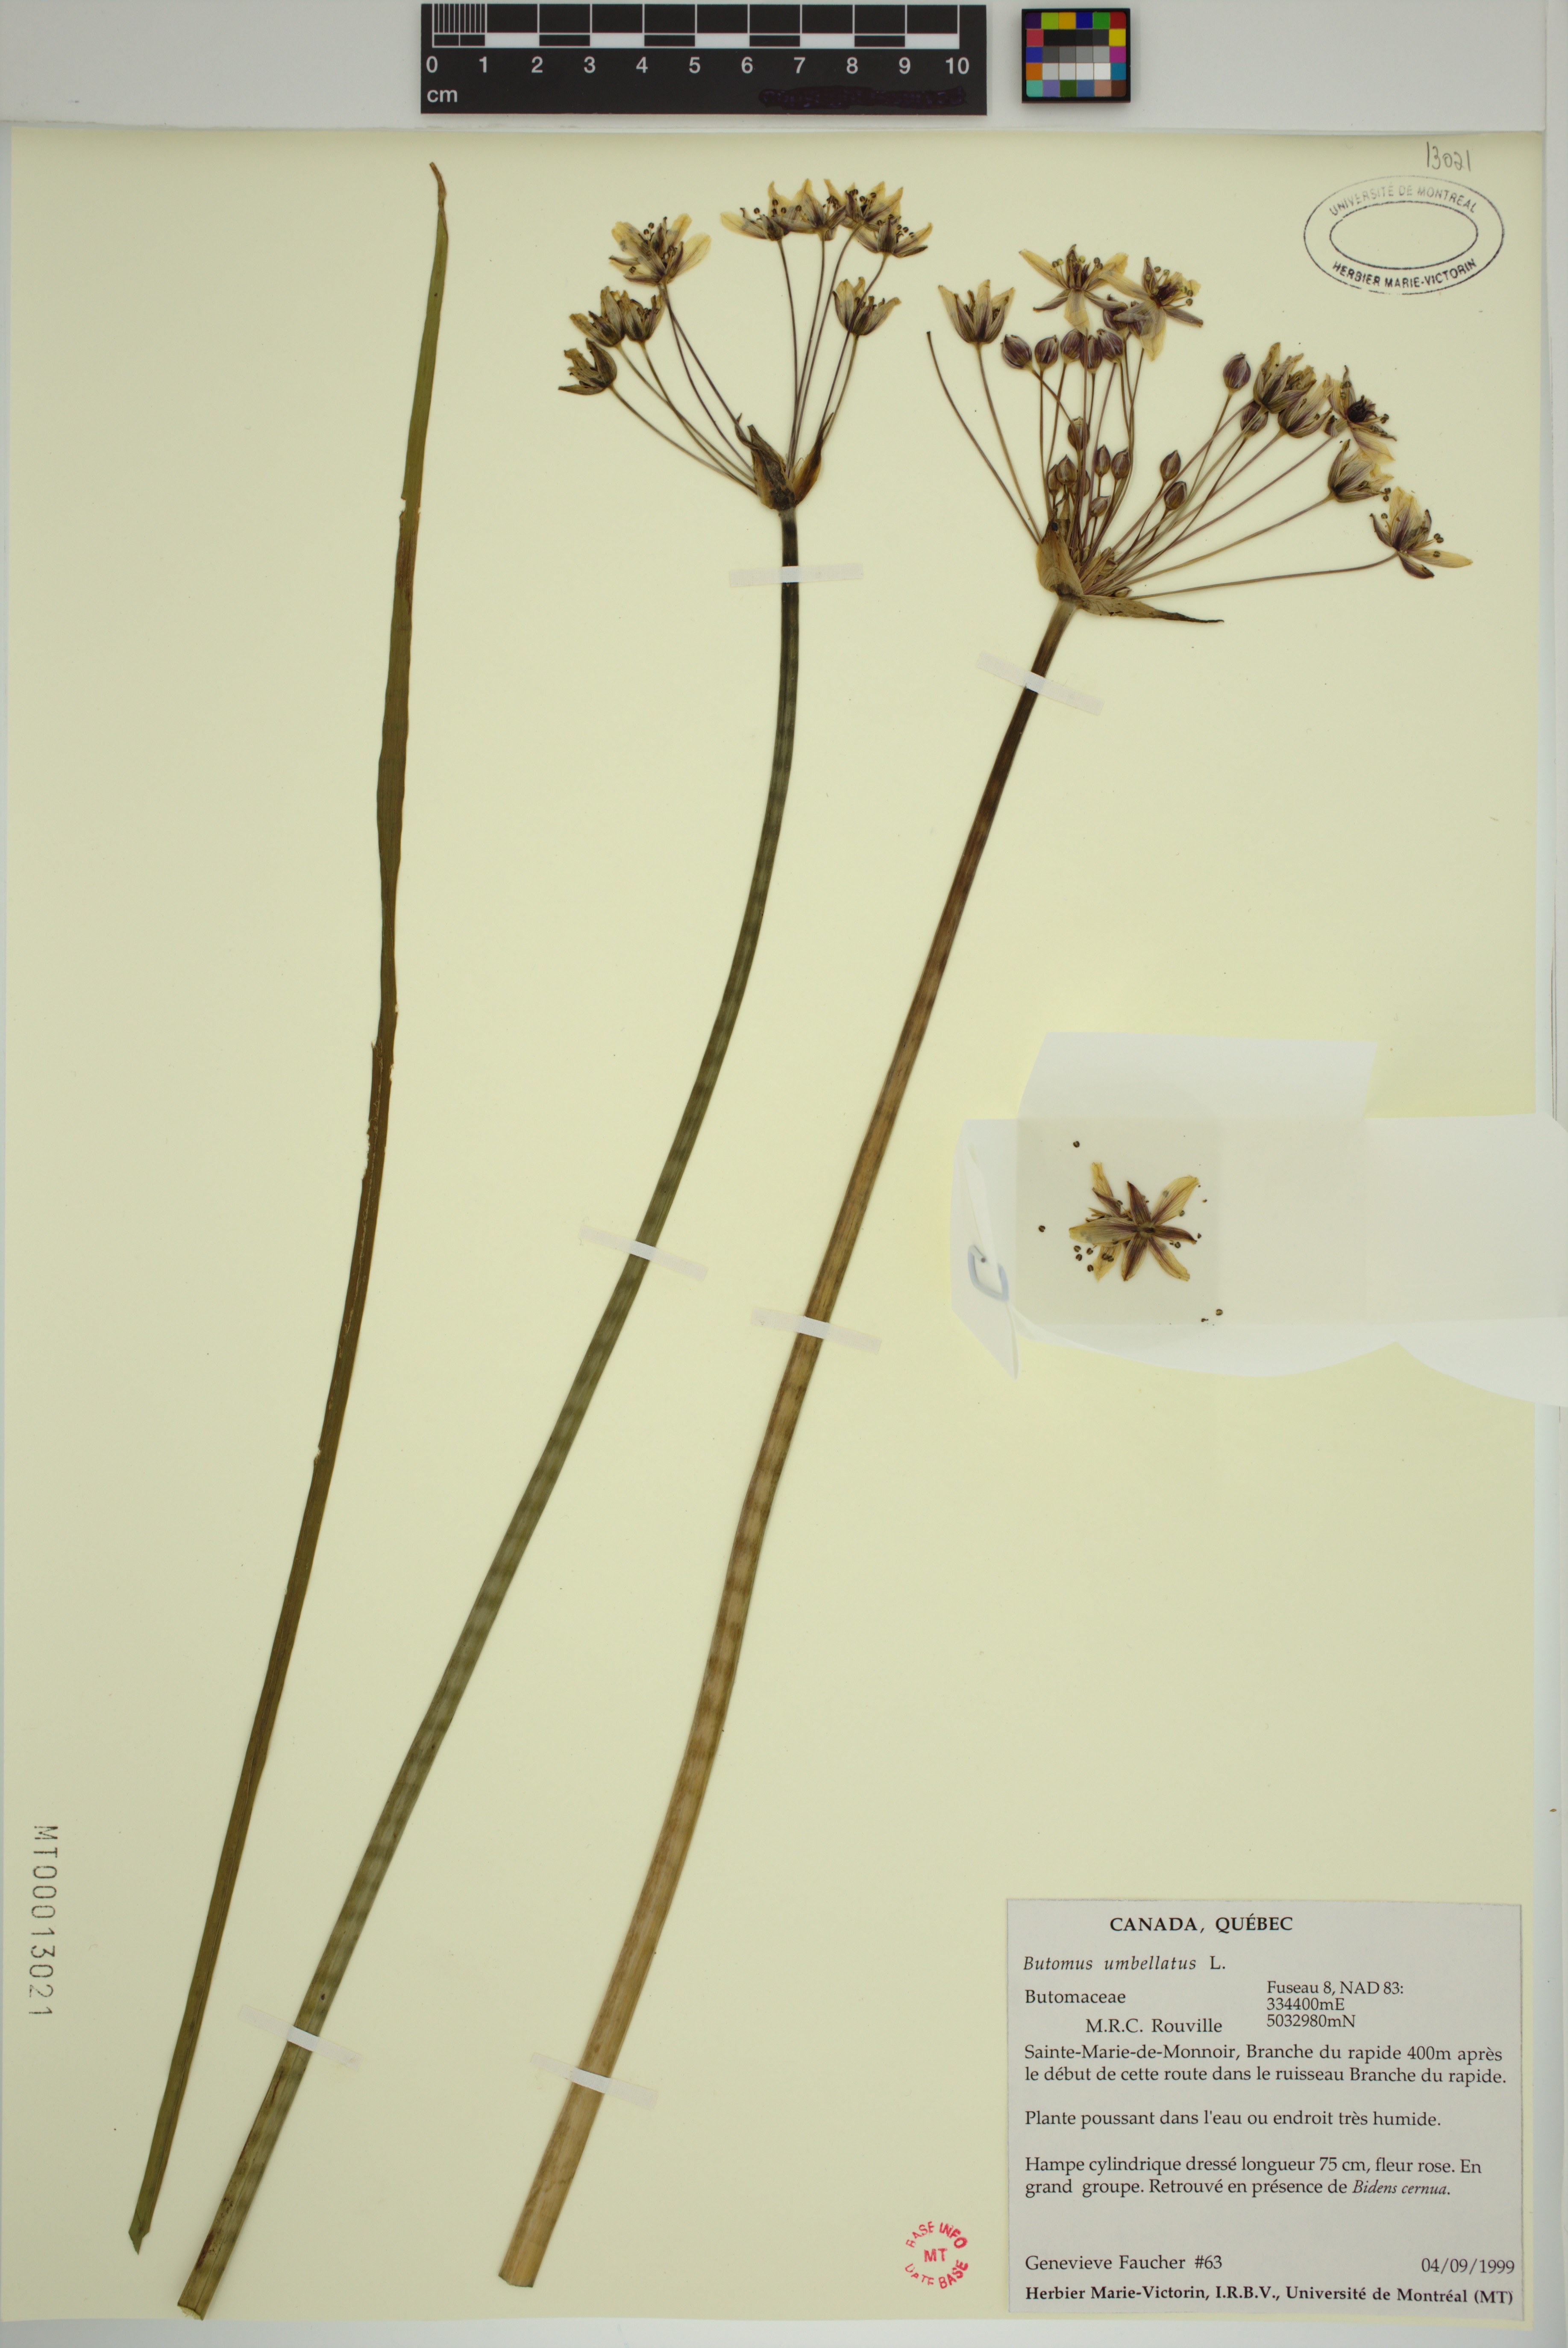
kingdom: Plantae
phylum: Tracheophyta
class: Liliopsida
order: Alismatales
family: Butomaceae
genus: Butomus
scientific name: Butomus umbellatus
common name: Flowering-rush
